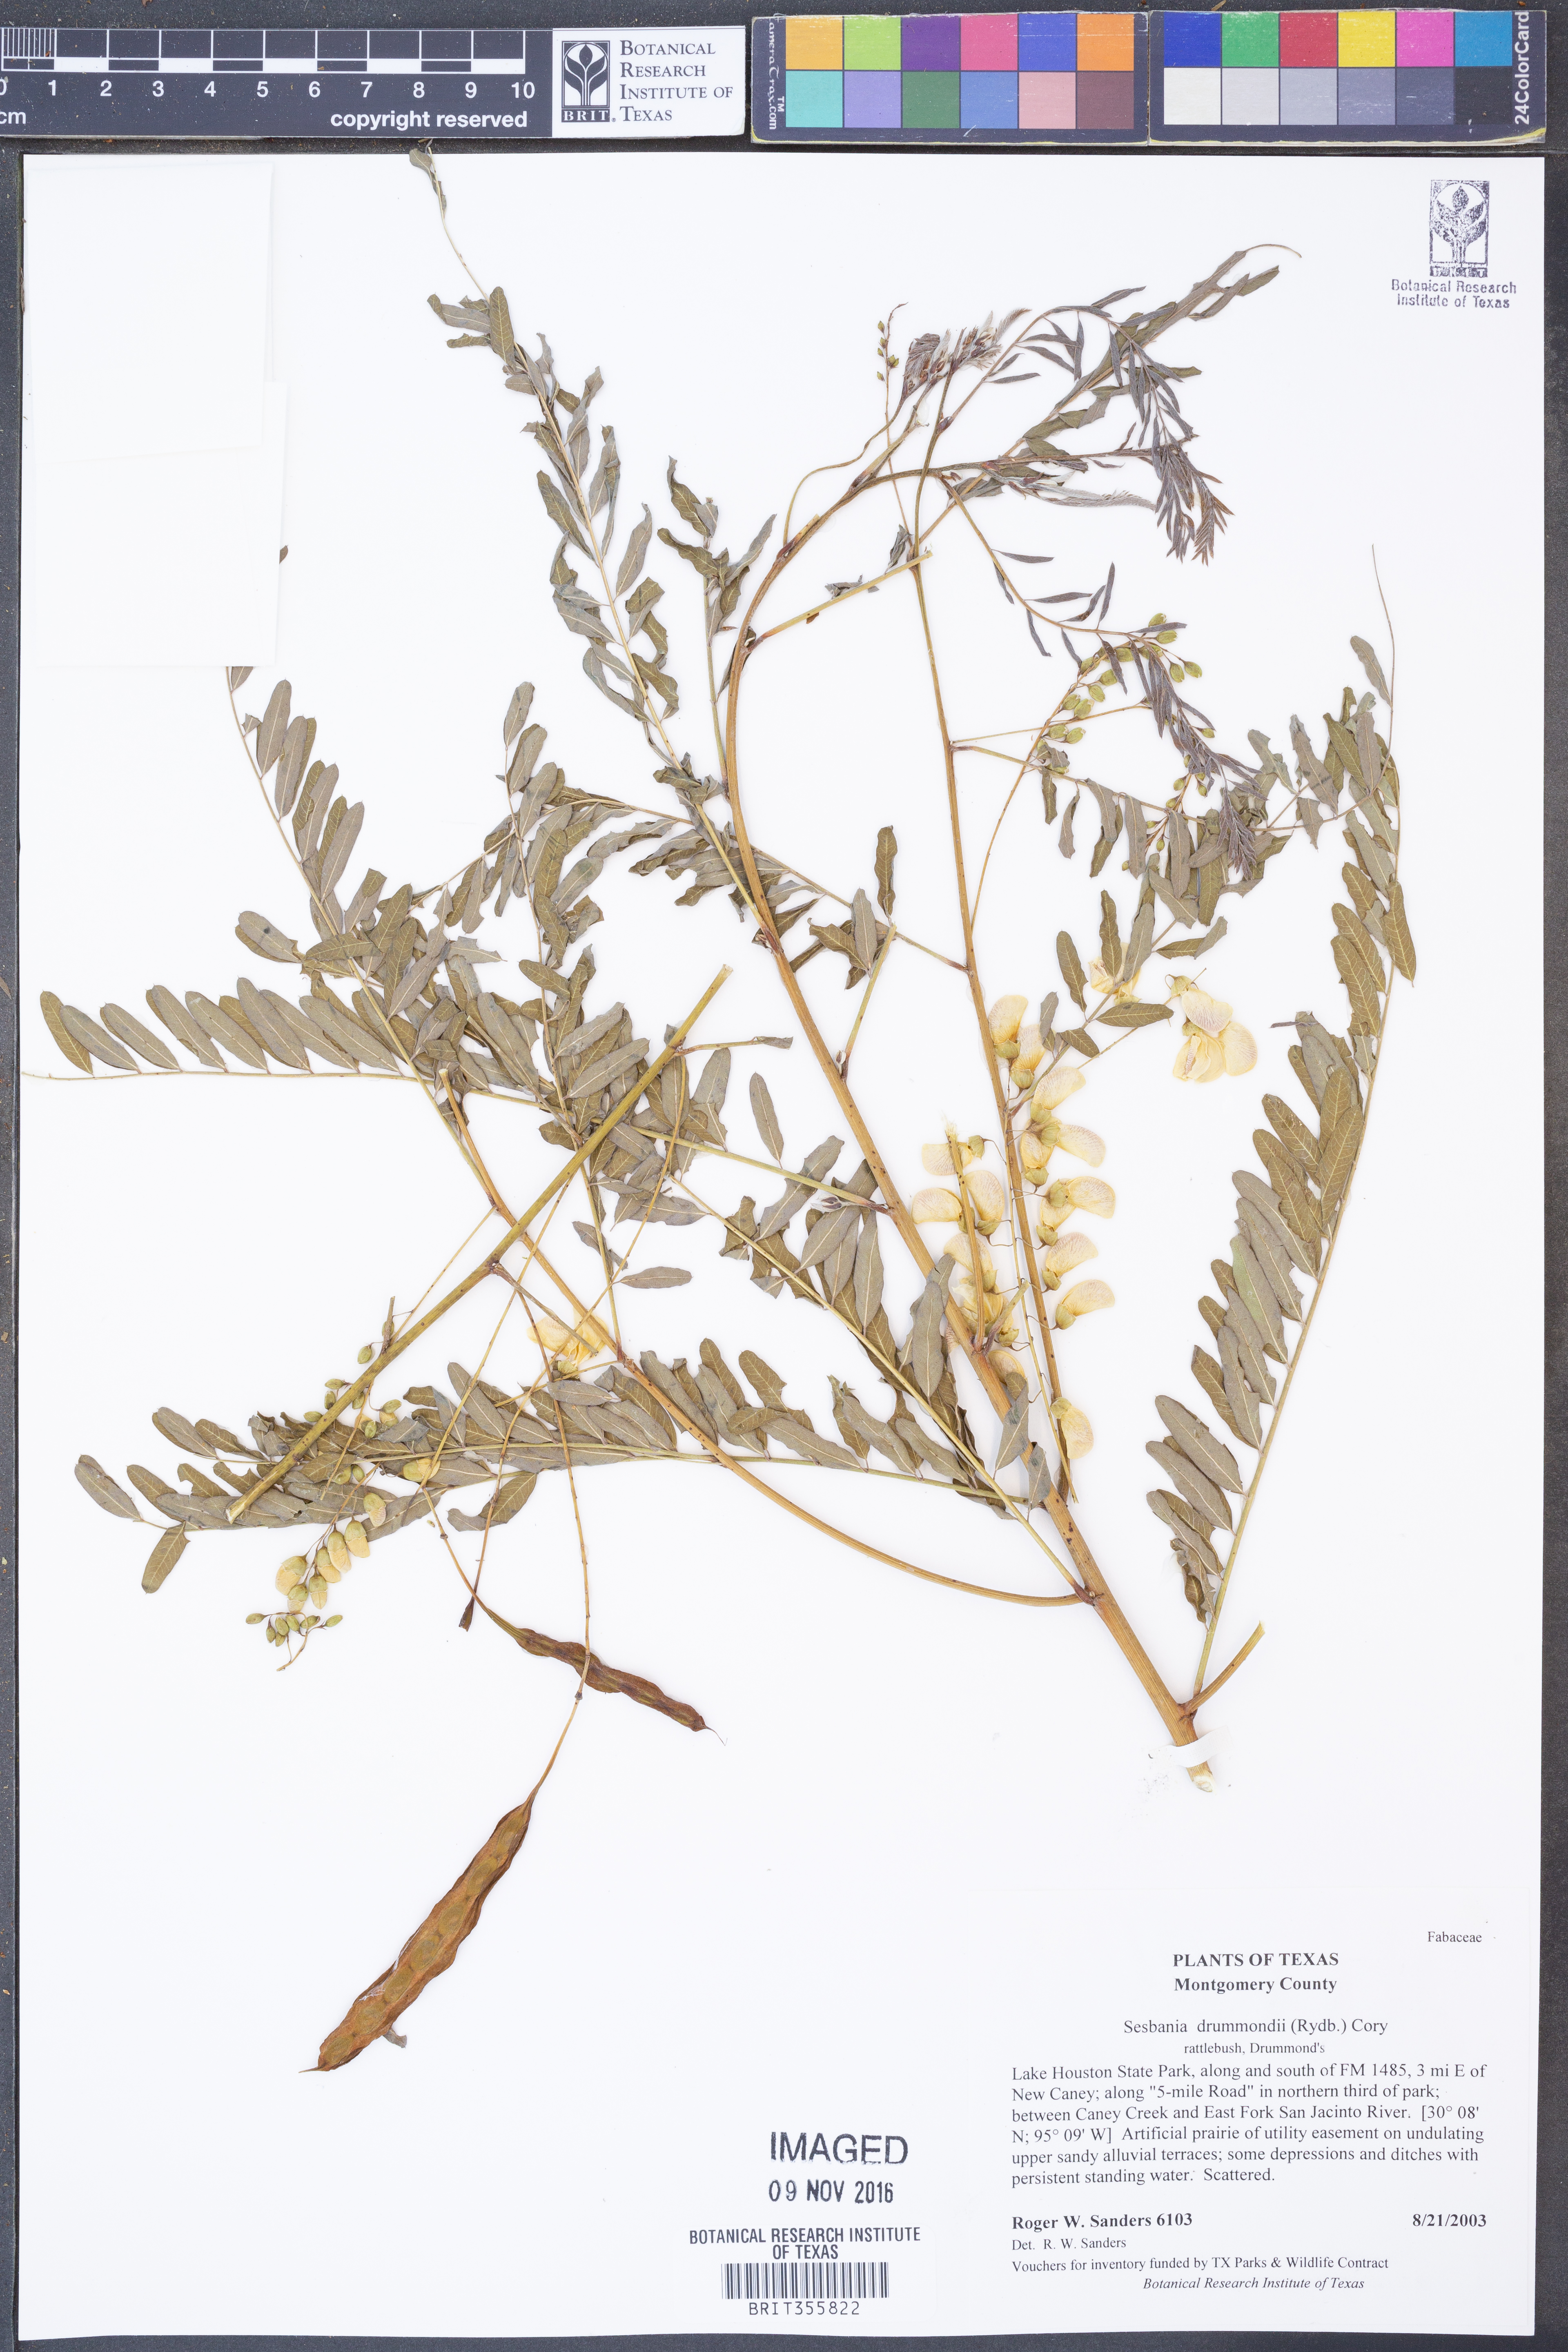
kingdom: Plantae
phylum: Tracheophyta
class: Magnoliopsida
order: Fabales
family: Fabaceae
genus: Sesbania
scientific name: Sesbania drummondii
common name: Poison-bean
